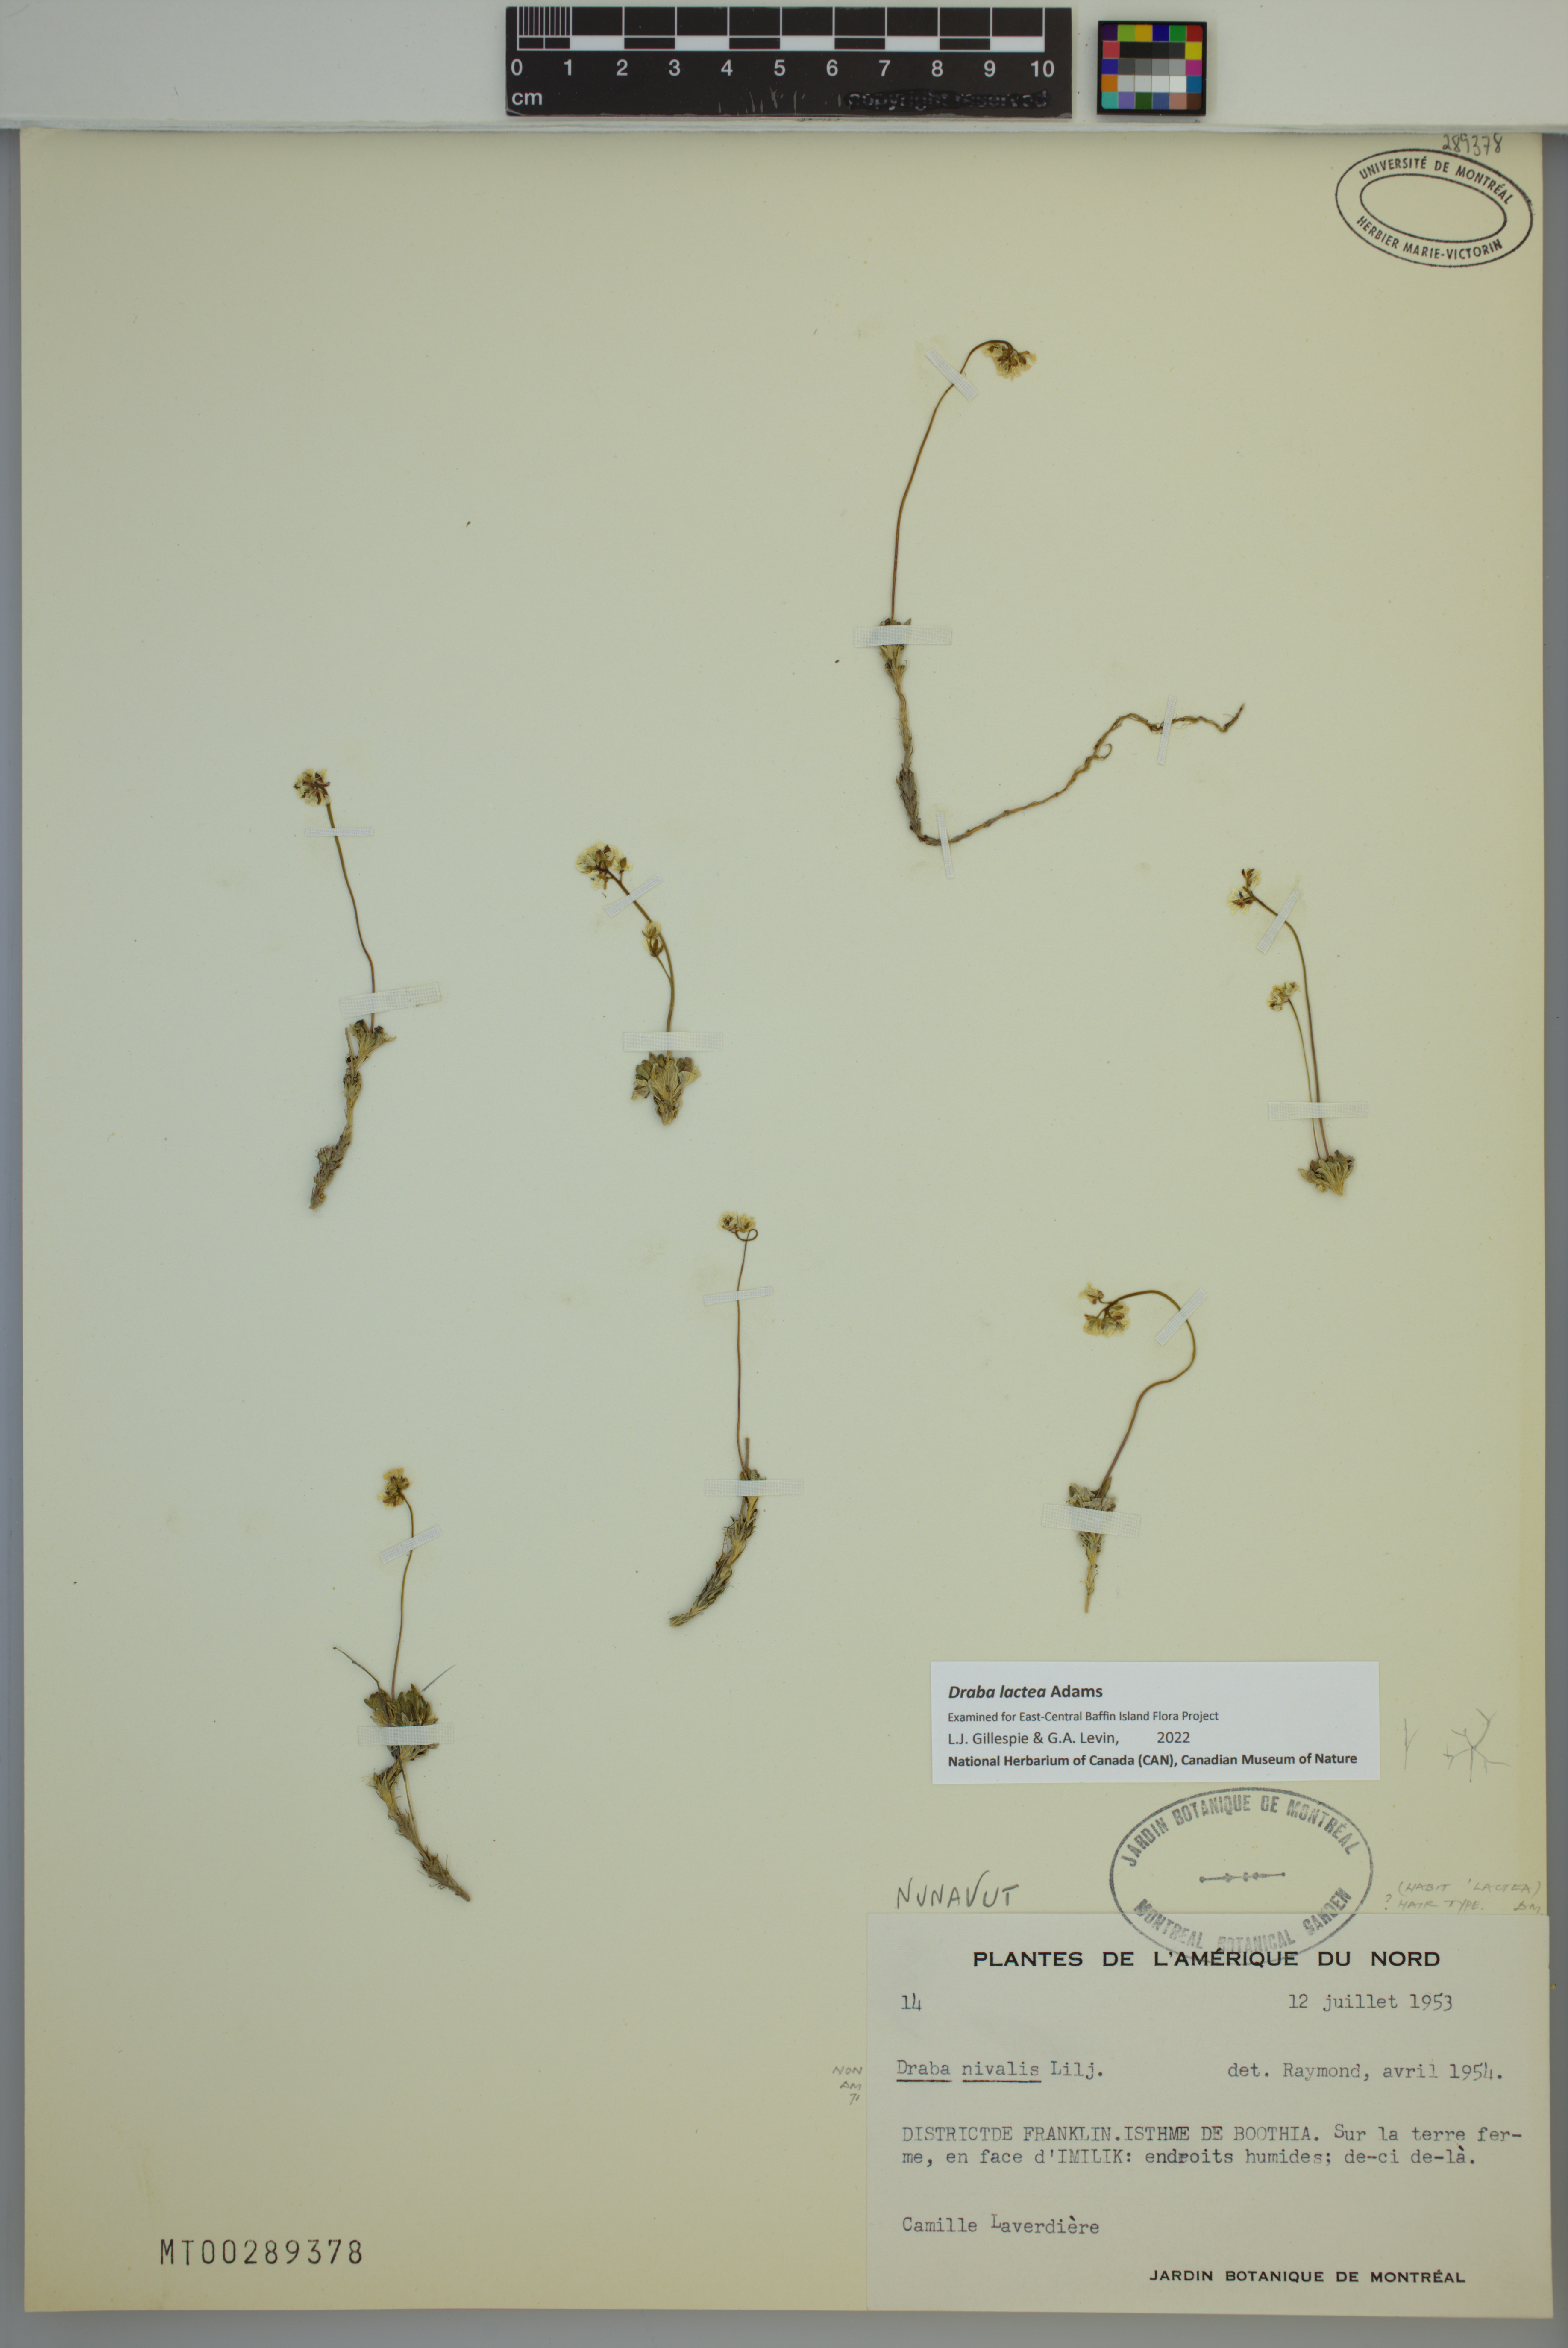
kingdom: Plantae
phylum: Tracheophyta
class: Magnoliopsida
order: Brassicales
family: Brassicaceae
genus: Draba
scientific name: Draba lactea
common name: Milky draba
